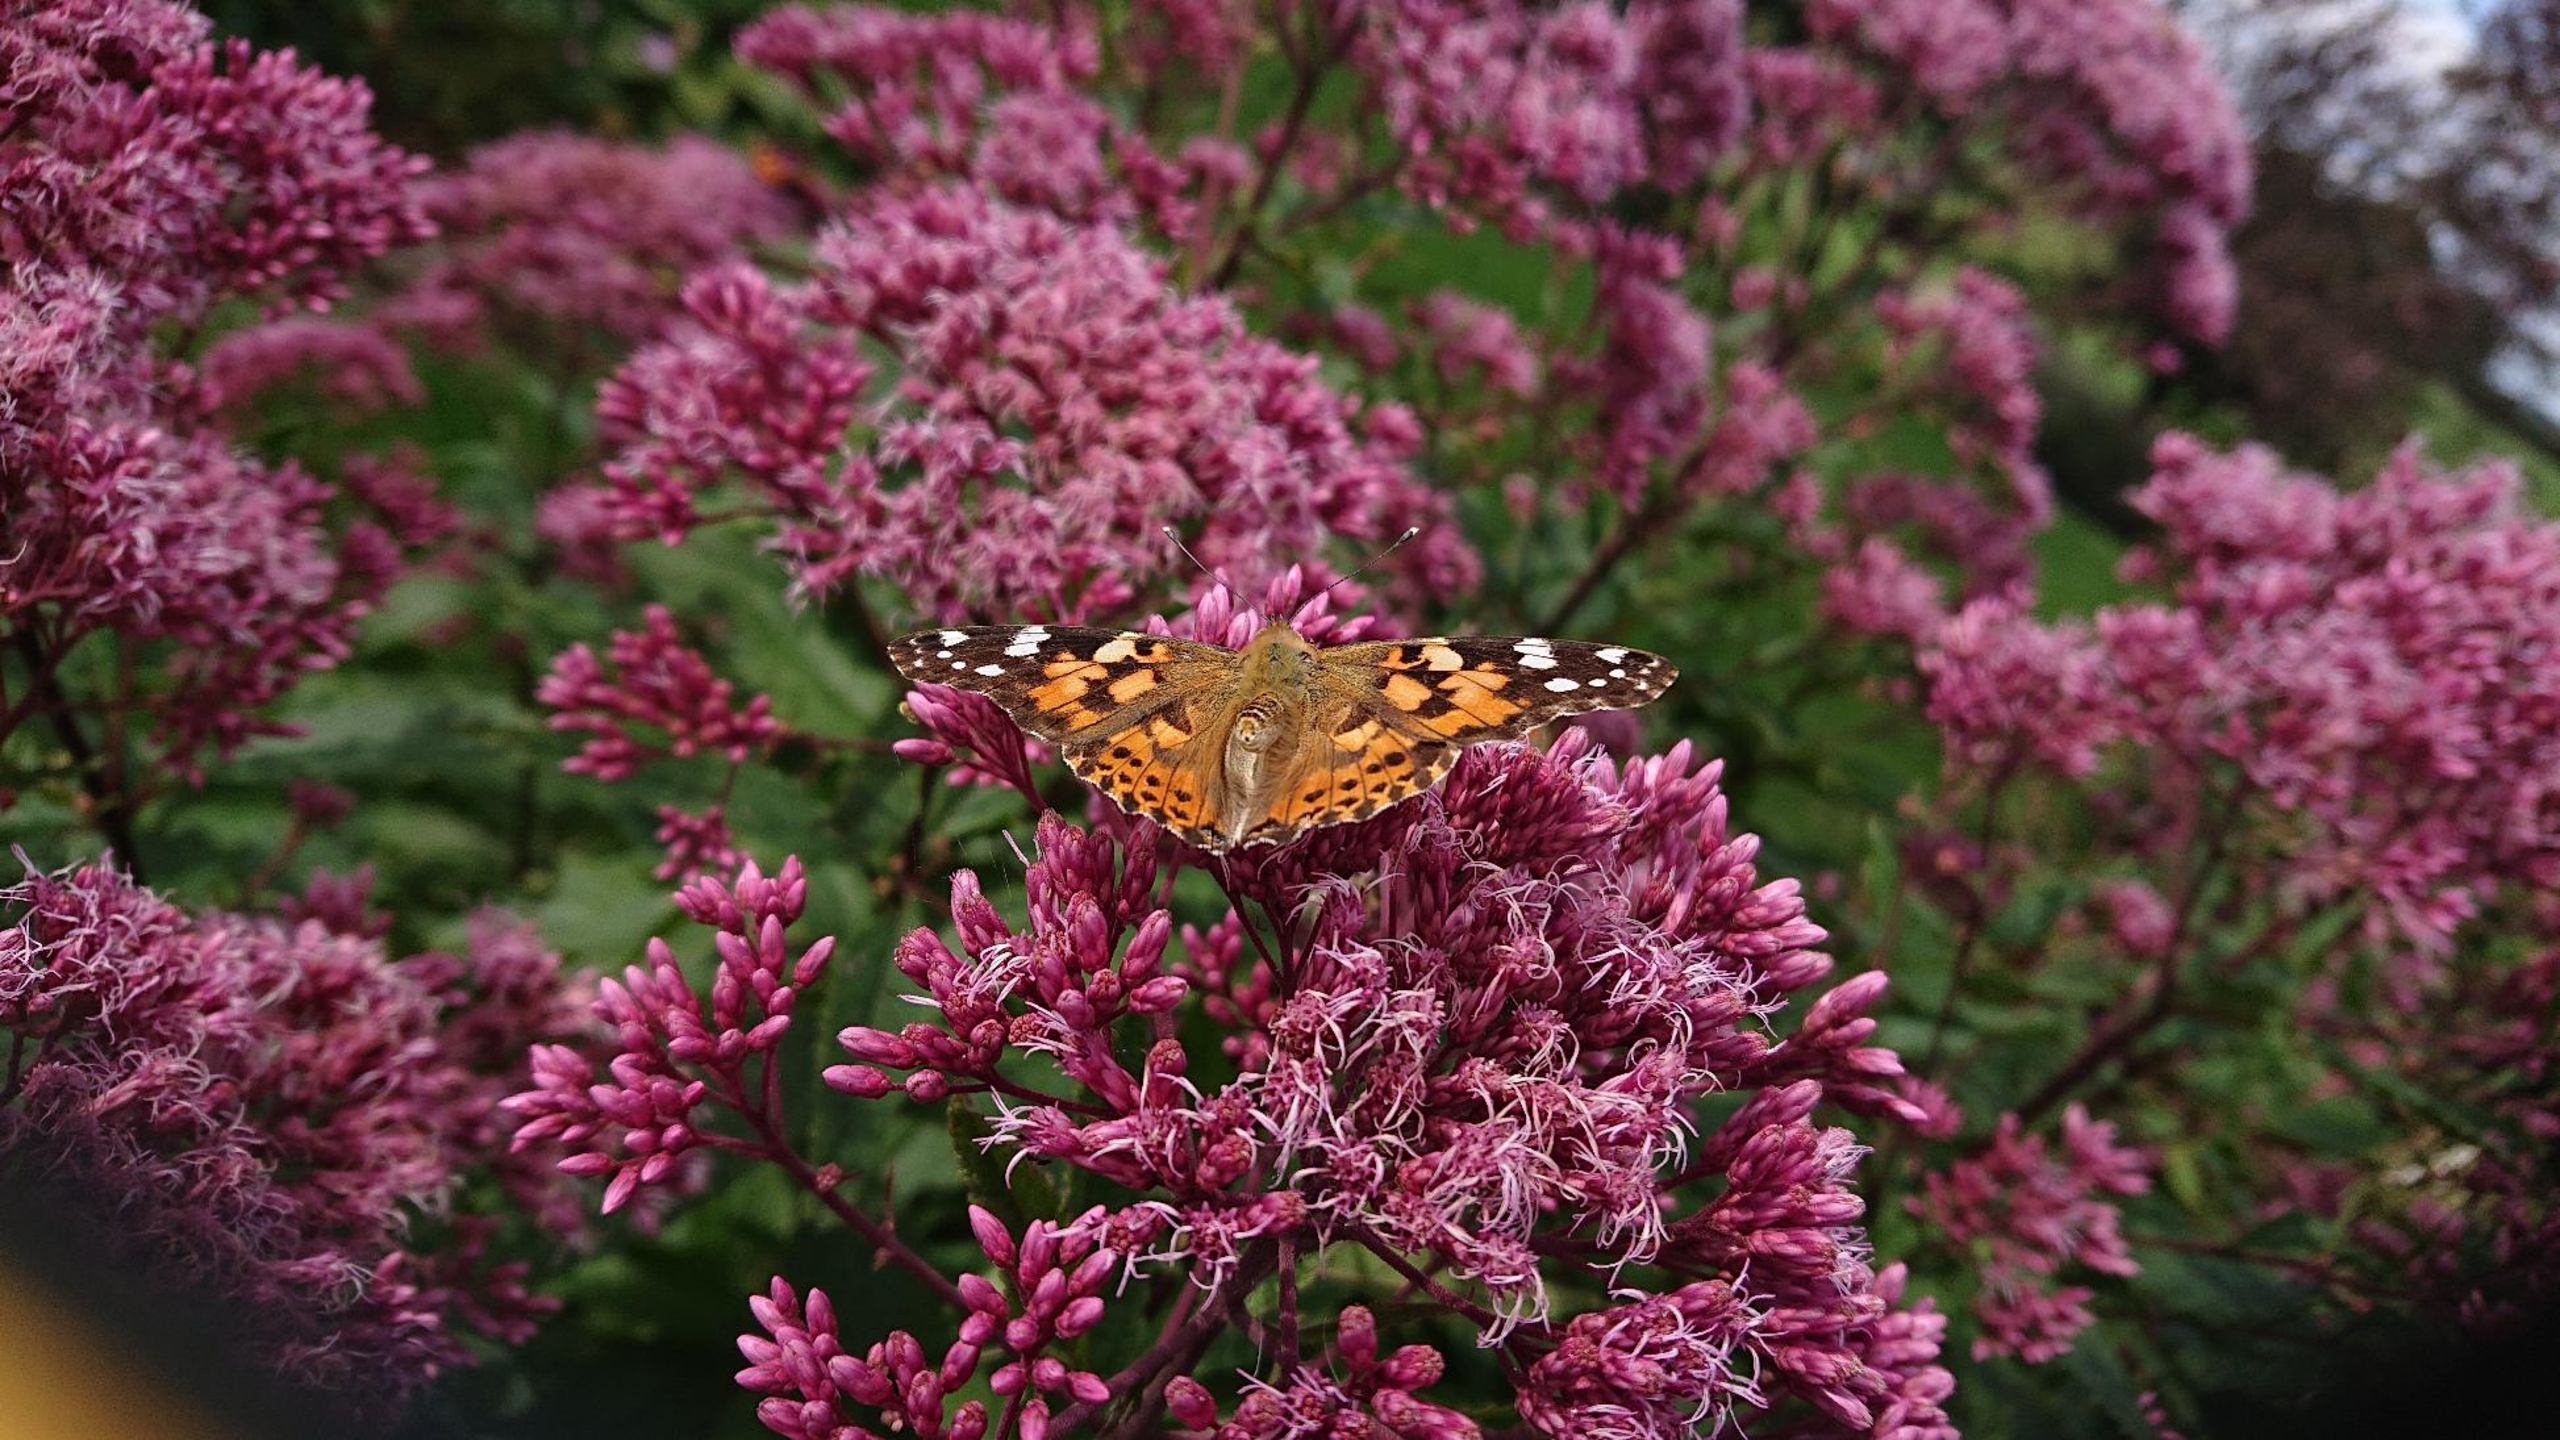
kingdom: Animalia
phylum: Arthropoda
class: Insecta
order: Lepidoptera
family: Nymphalidae
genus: Vanessa
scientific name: Vanessa cardui
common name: Tidselsommerfugl
